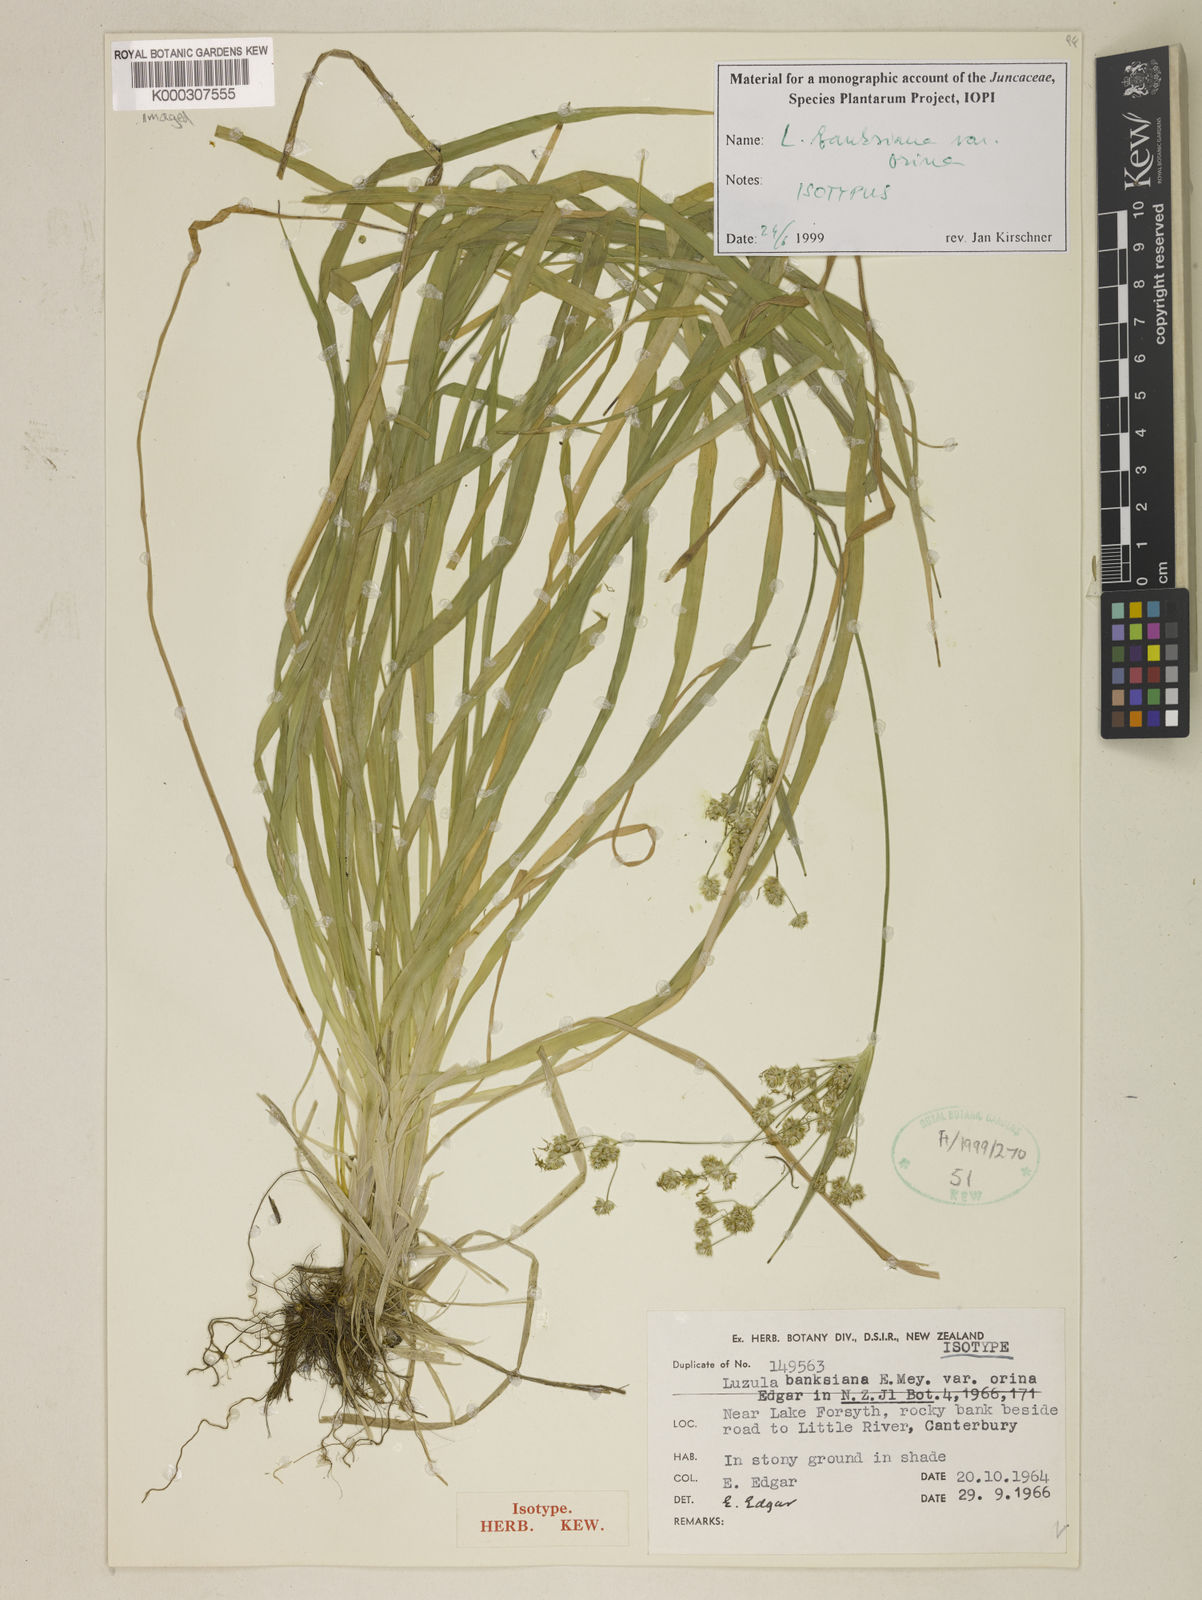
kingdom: Plantae
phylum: Tracheophyta
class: Liliopsida
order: Poales
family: Juncaceae
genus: Luzula
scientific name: Luzula banksiana
